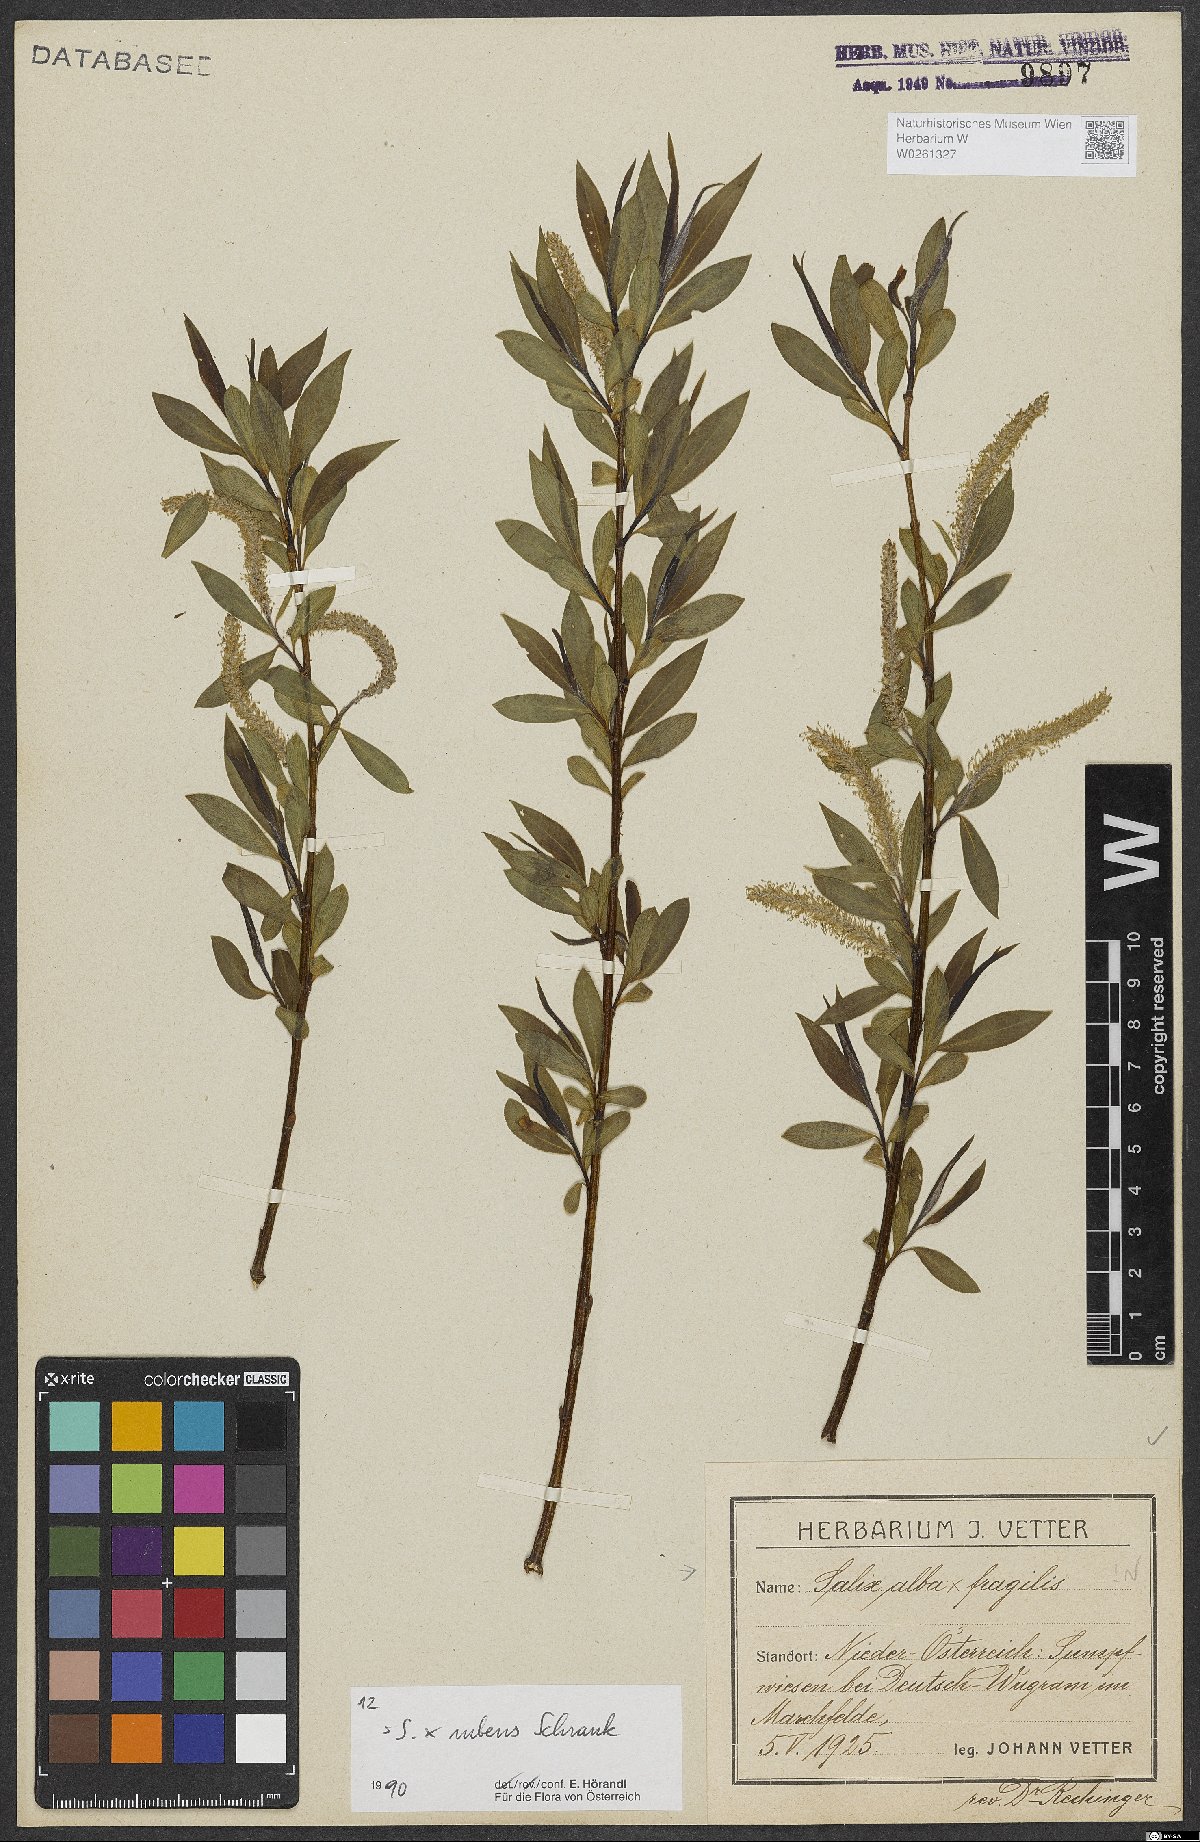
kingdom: Plantae
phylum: Tracheophyta
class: Magnoliopsida
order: Malpighiales
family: Salicaceae
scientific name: Salicaceae
